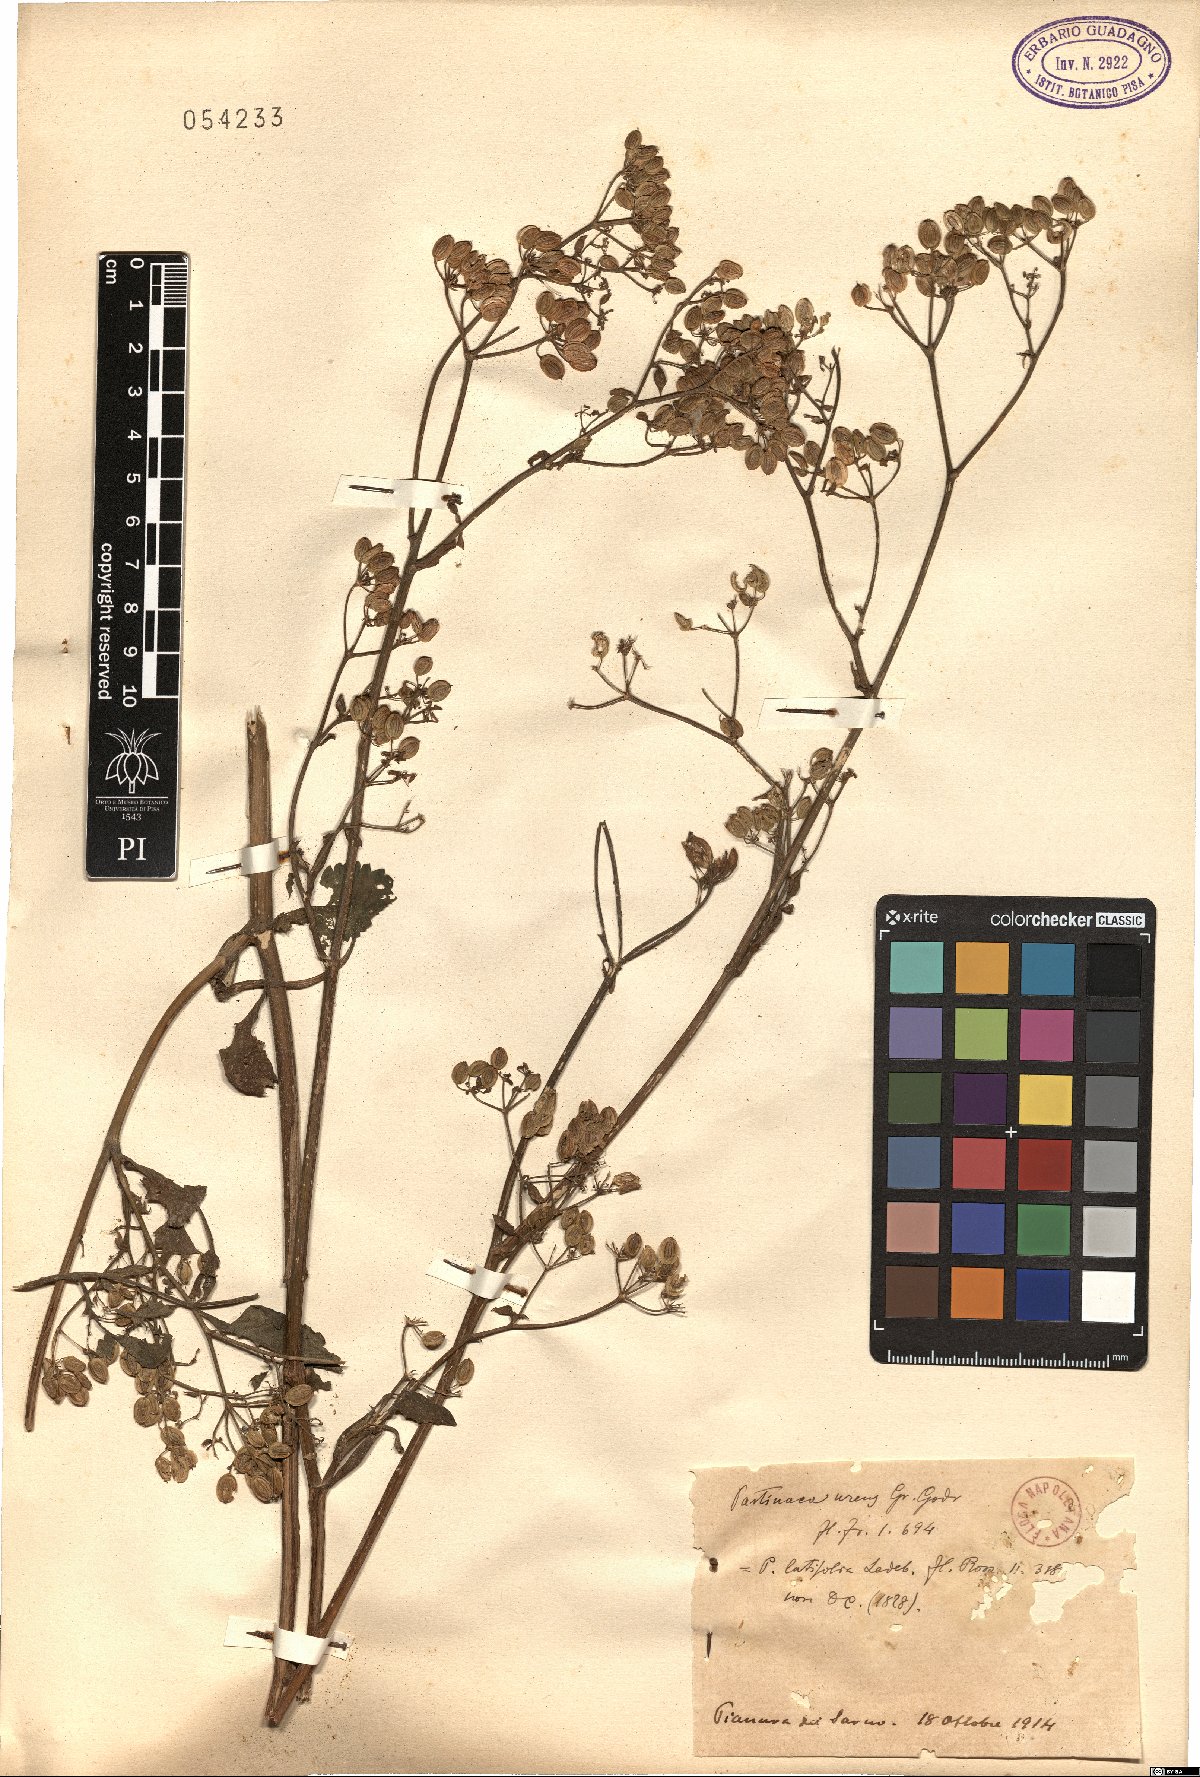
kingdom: Plantae
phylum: Tracheophyta
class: Magnoliopsida
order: Apiales
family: Apiaceae
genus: Pastinaca
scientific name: Pastinaca sativa
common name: Wild parsnip
